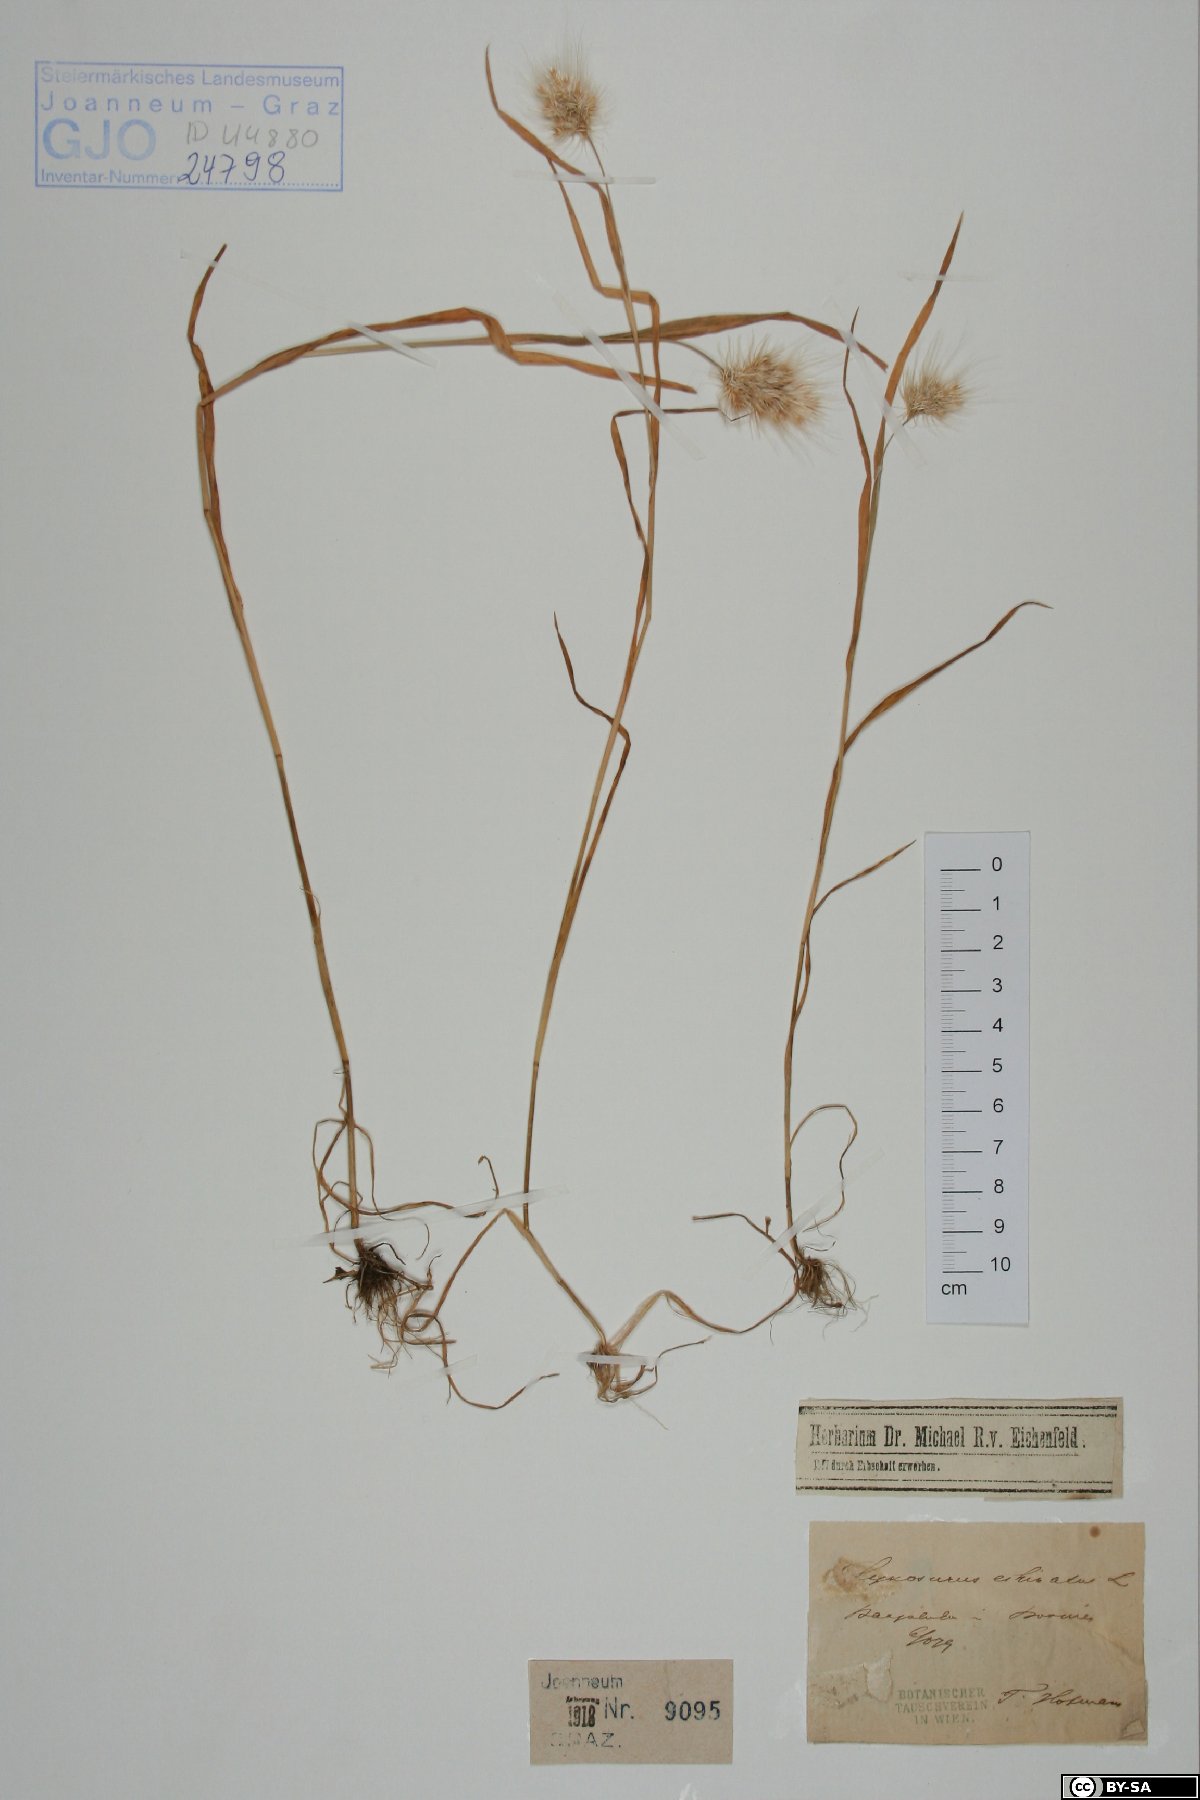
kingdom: Plantae
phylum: Tracheophyta
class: Liliopsida
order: Poales
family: Poaceae
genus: Cynosurus
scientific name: Cynosurus echinatus
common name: Rough dog's-tail
